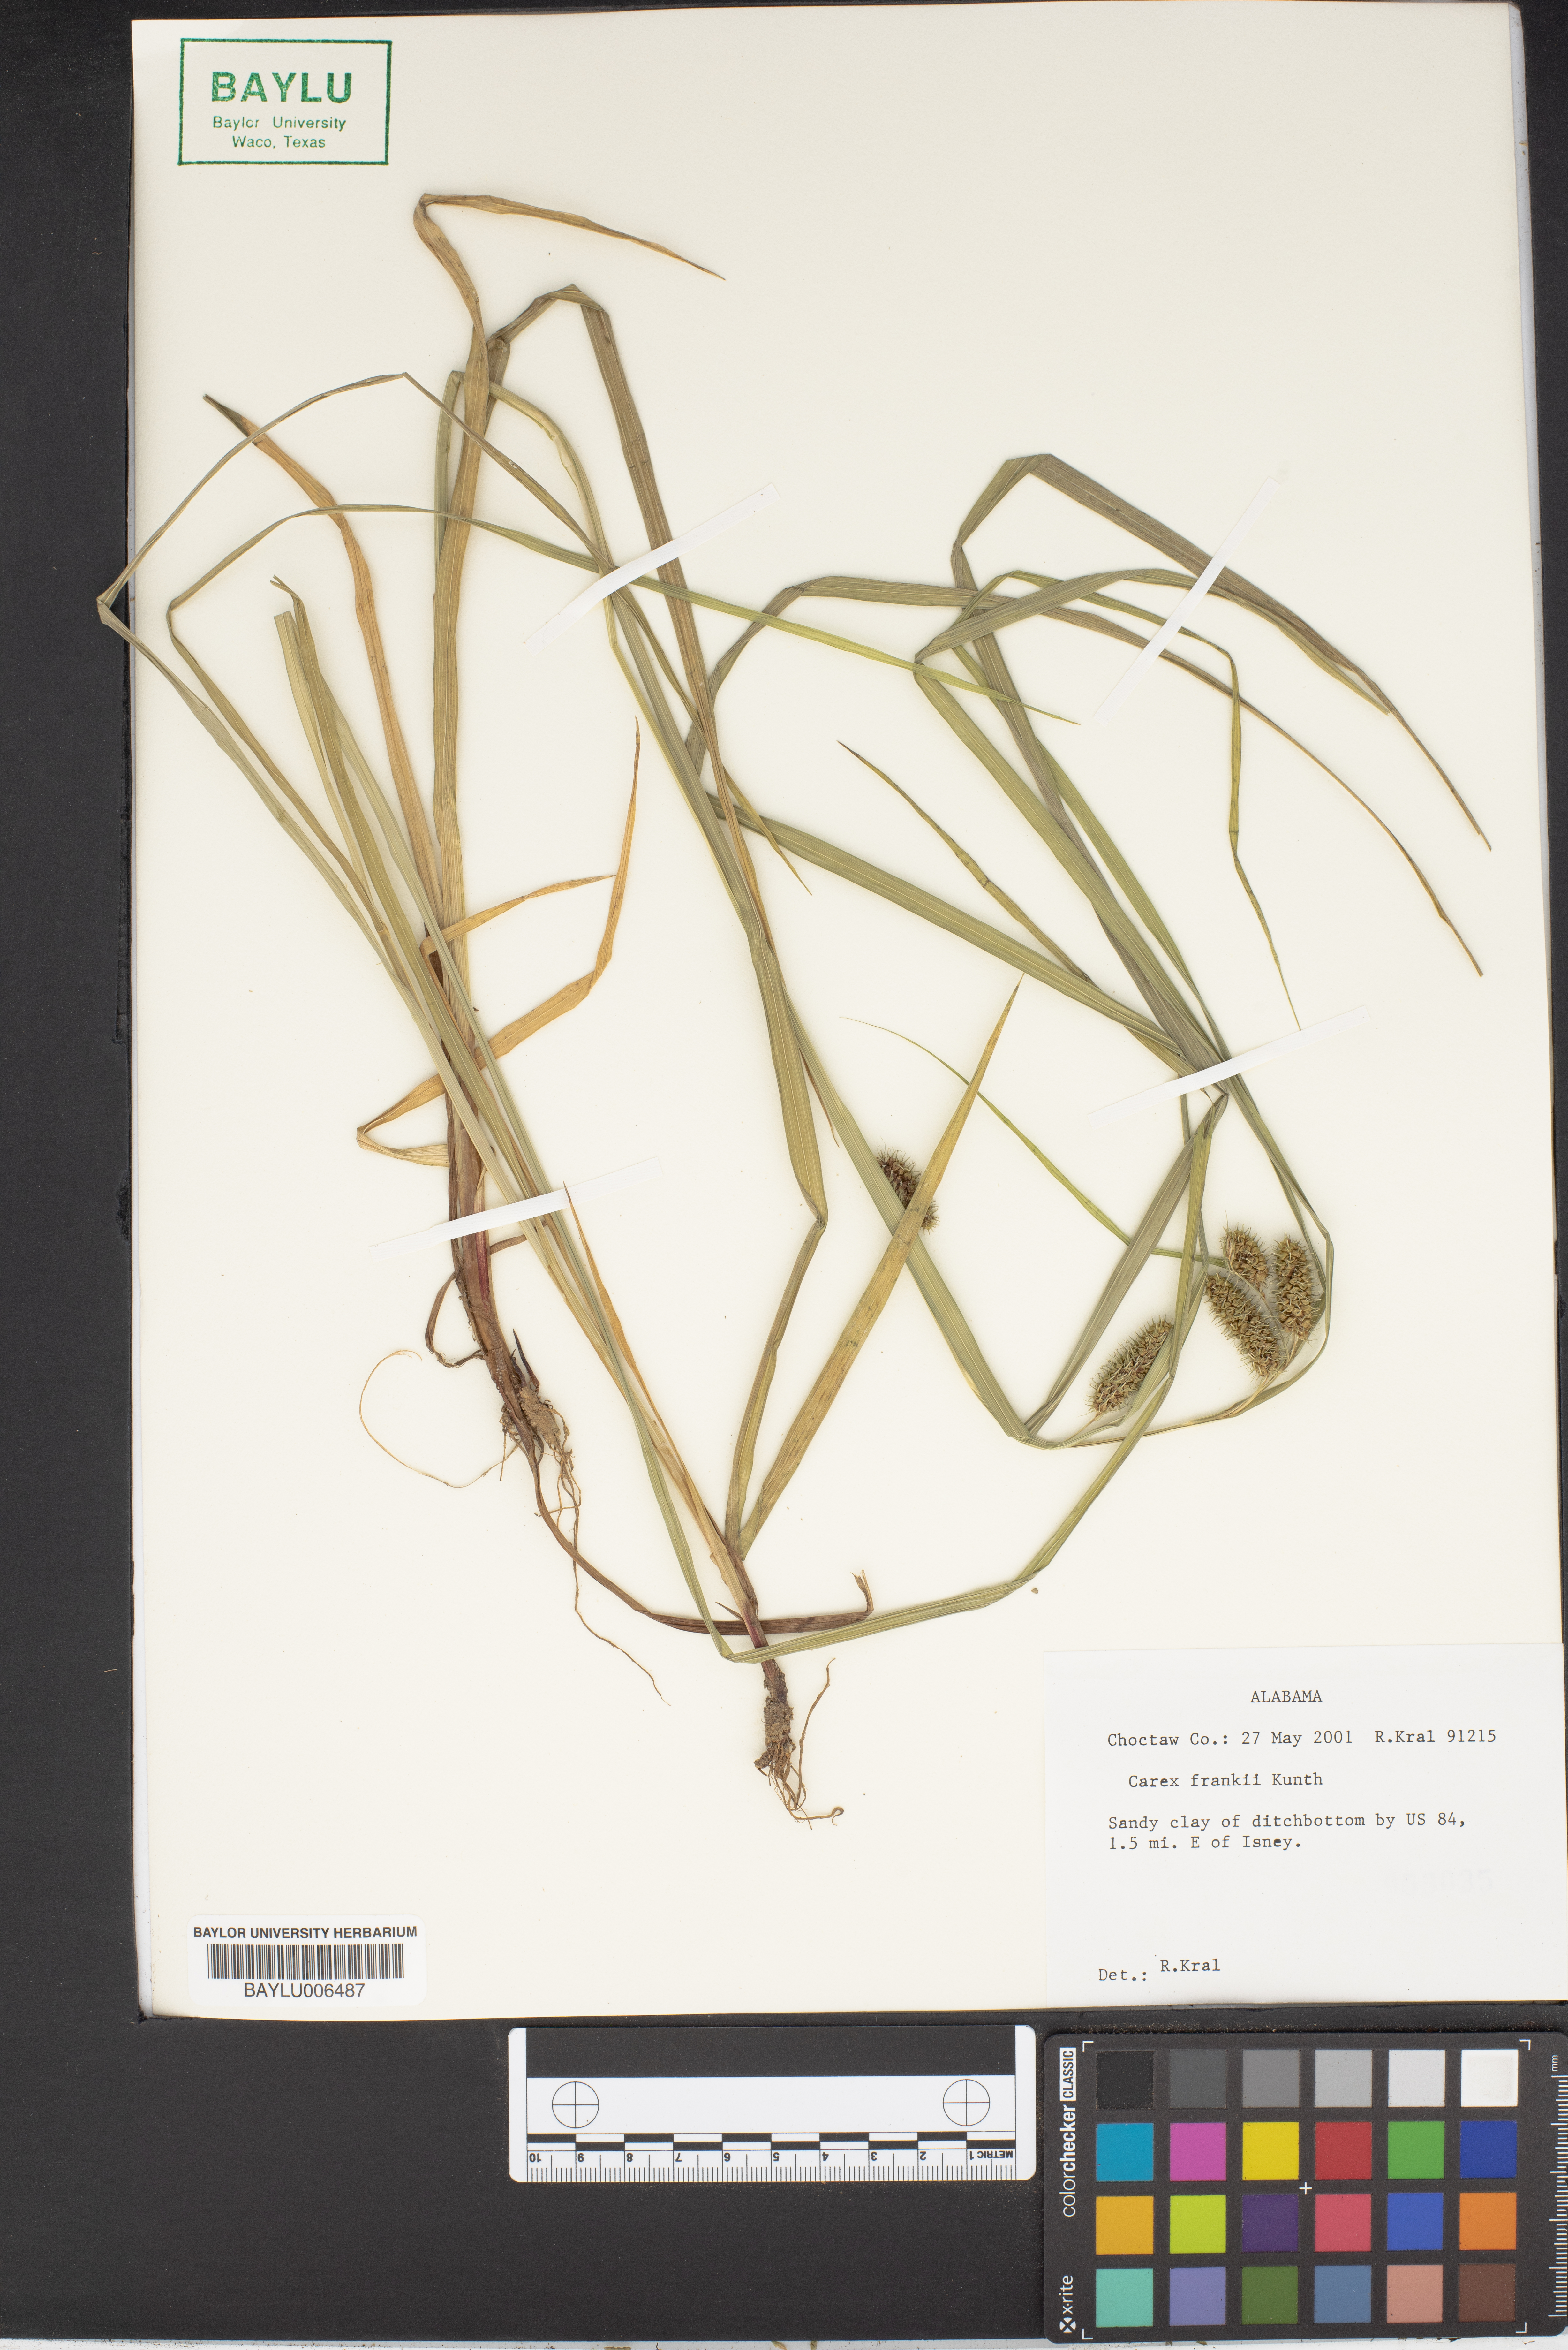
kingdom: Plantae
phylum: Tracheophyta
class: Liliopsida
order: Poales
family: Cyperaceae
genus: Carex
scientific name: Carex frankii
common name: Frank's sedge
